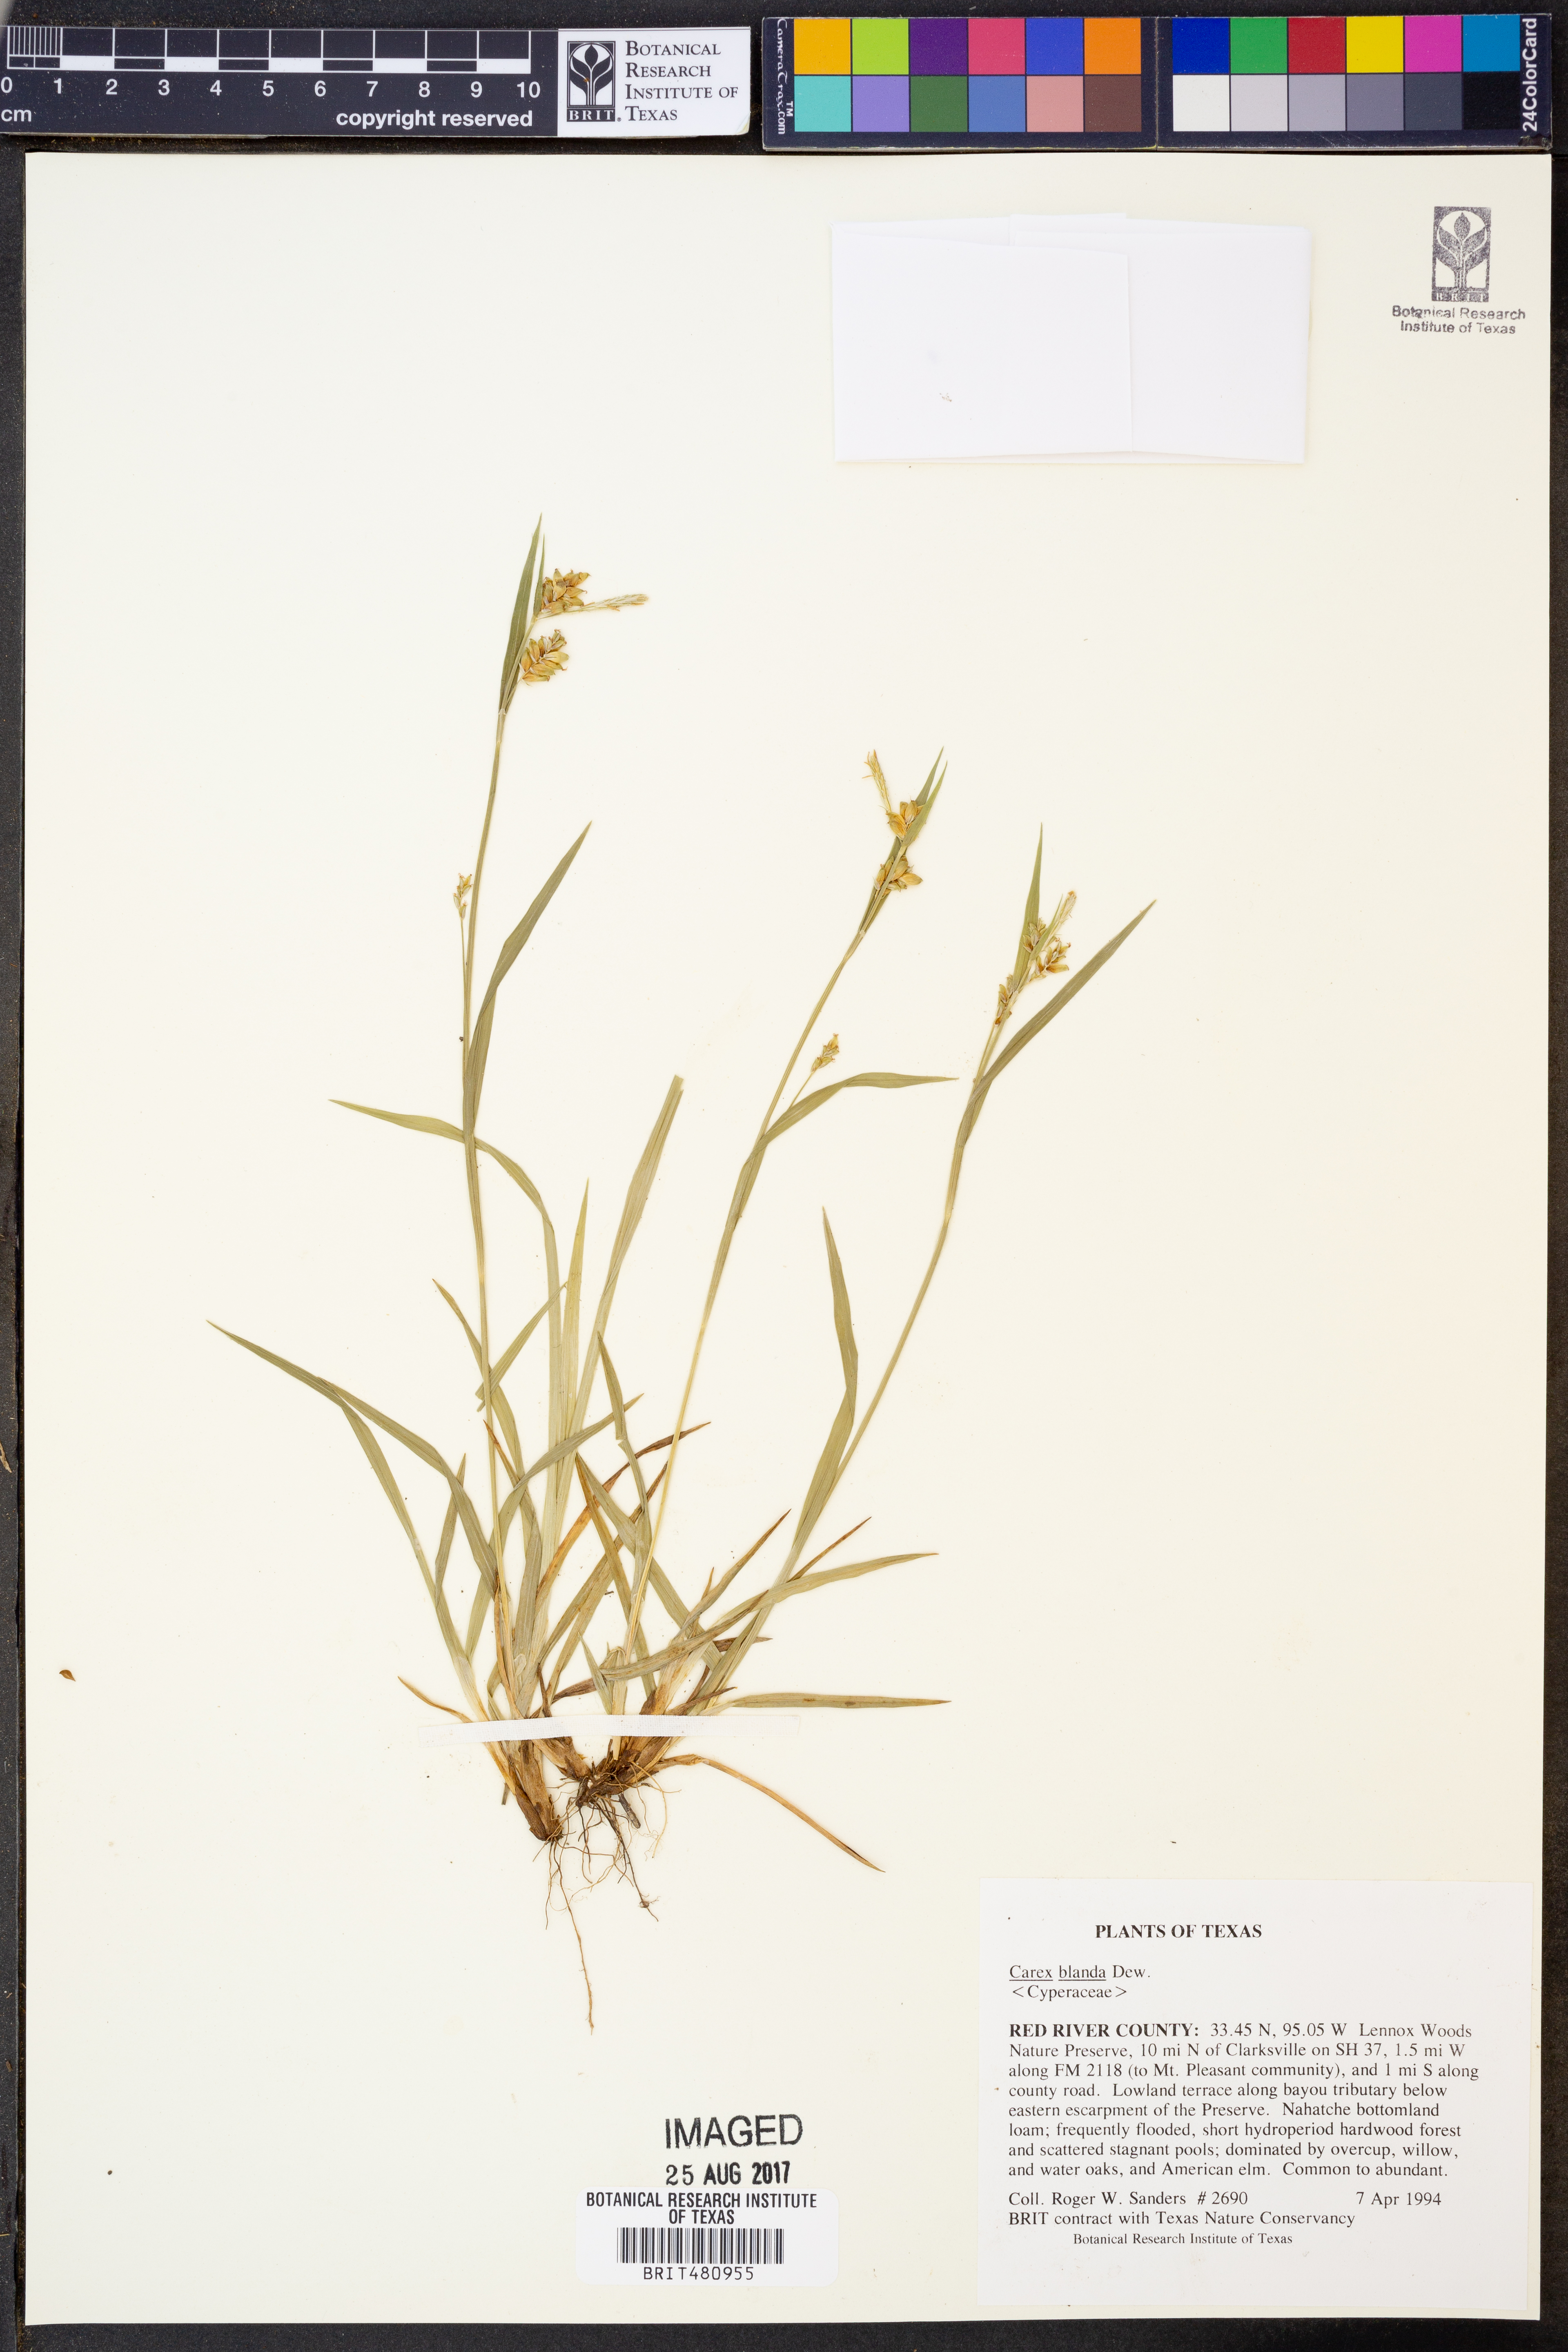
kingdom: Plantae
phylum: Tracheophyta
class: Liliopsida
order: Poales
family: Cyperaceae
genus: Carex
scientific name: Carex blanda
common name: Bland sedge
